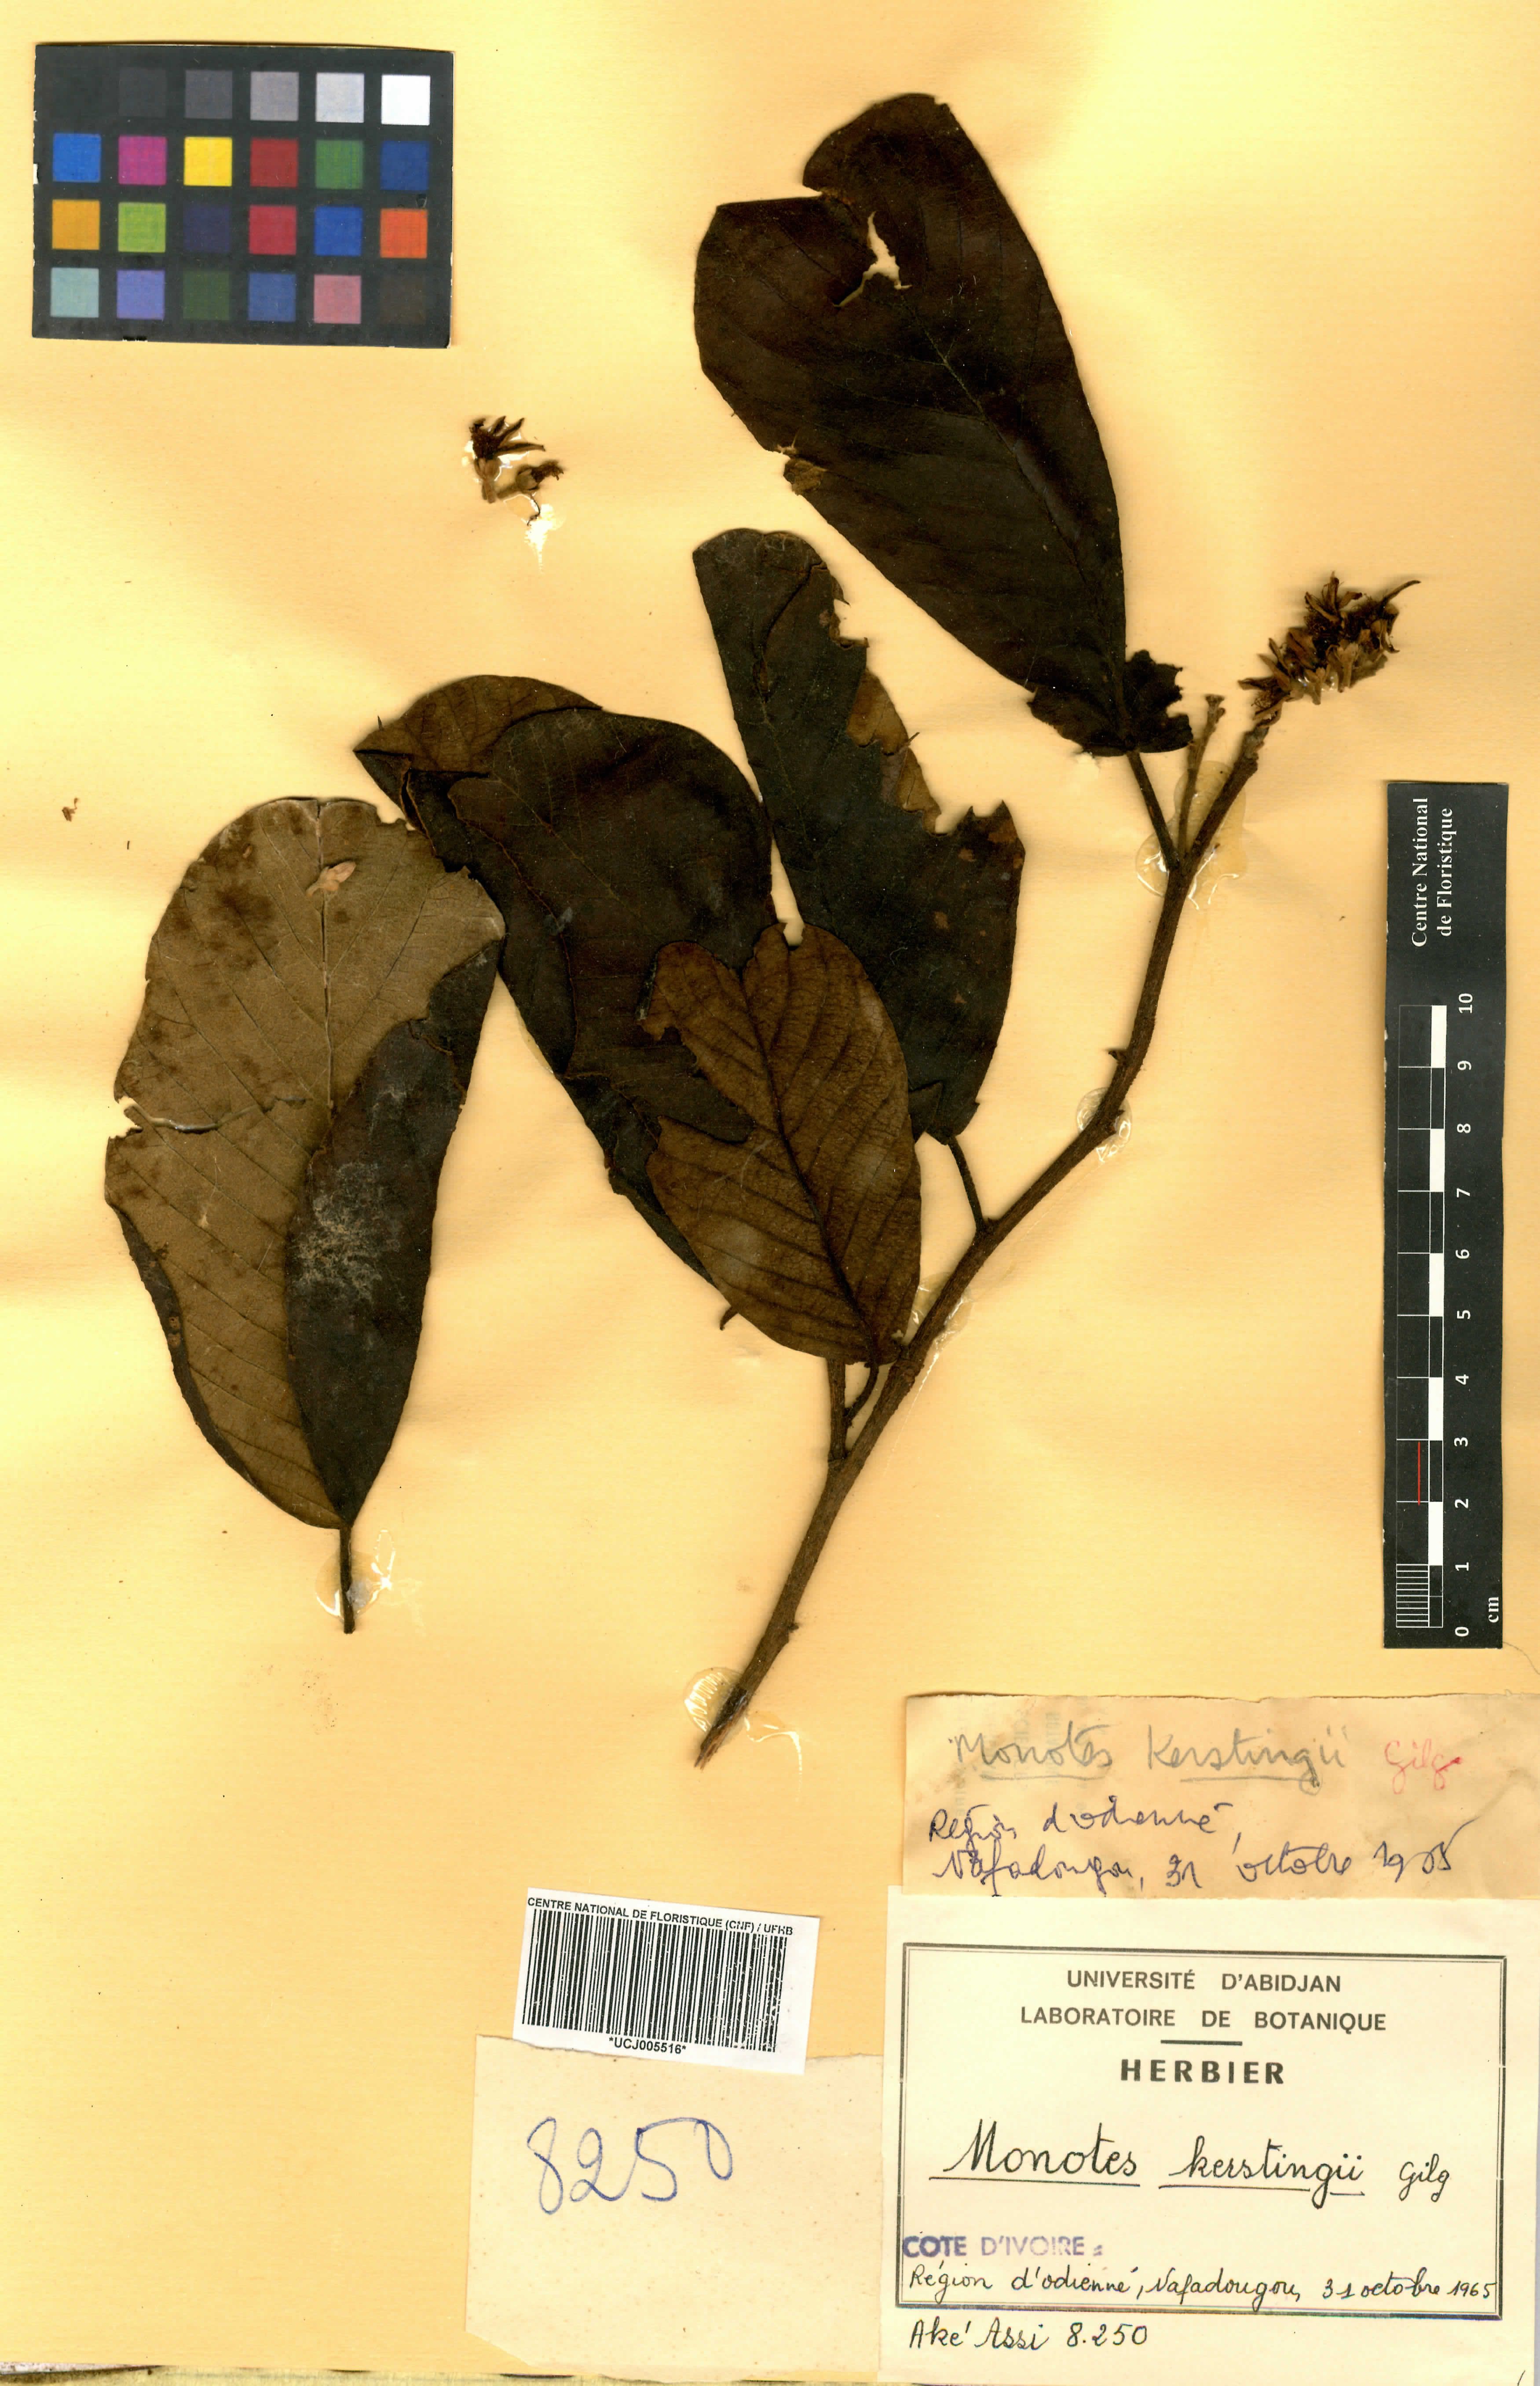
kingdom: Plantae
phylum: Tracheophyta
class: Magnoliopsida
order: Malvales
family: Dipterocarpaceae
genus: Monotes
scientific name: Monotes kerstingii
